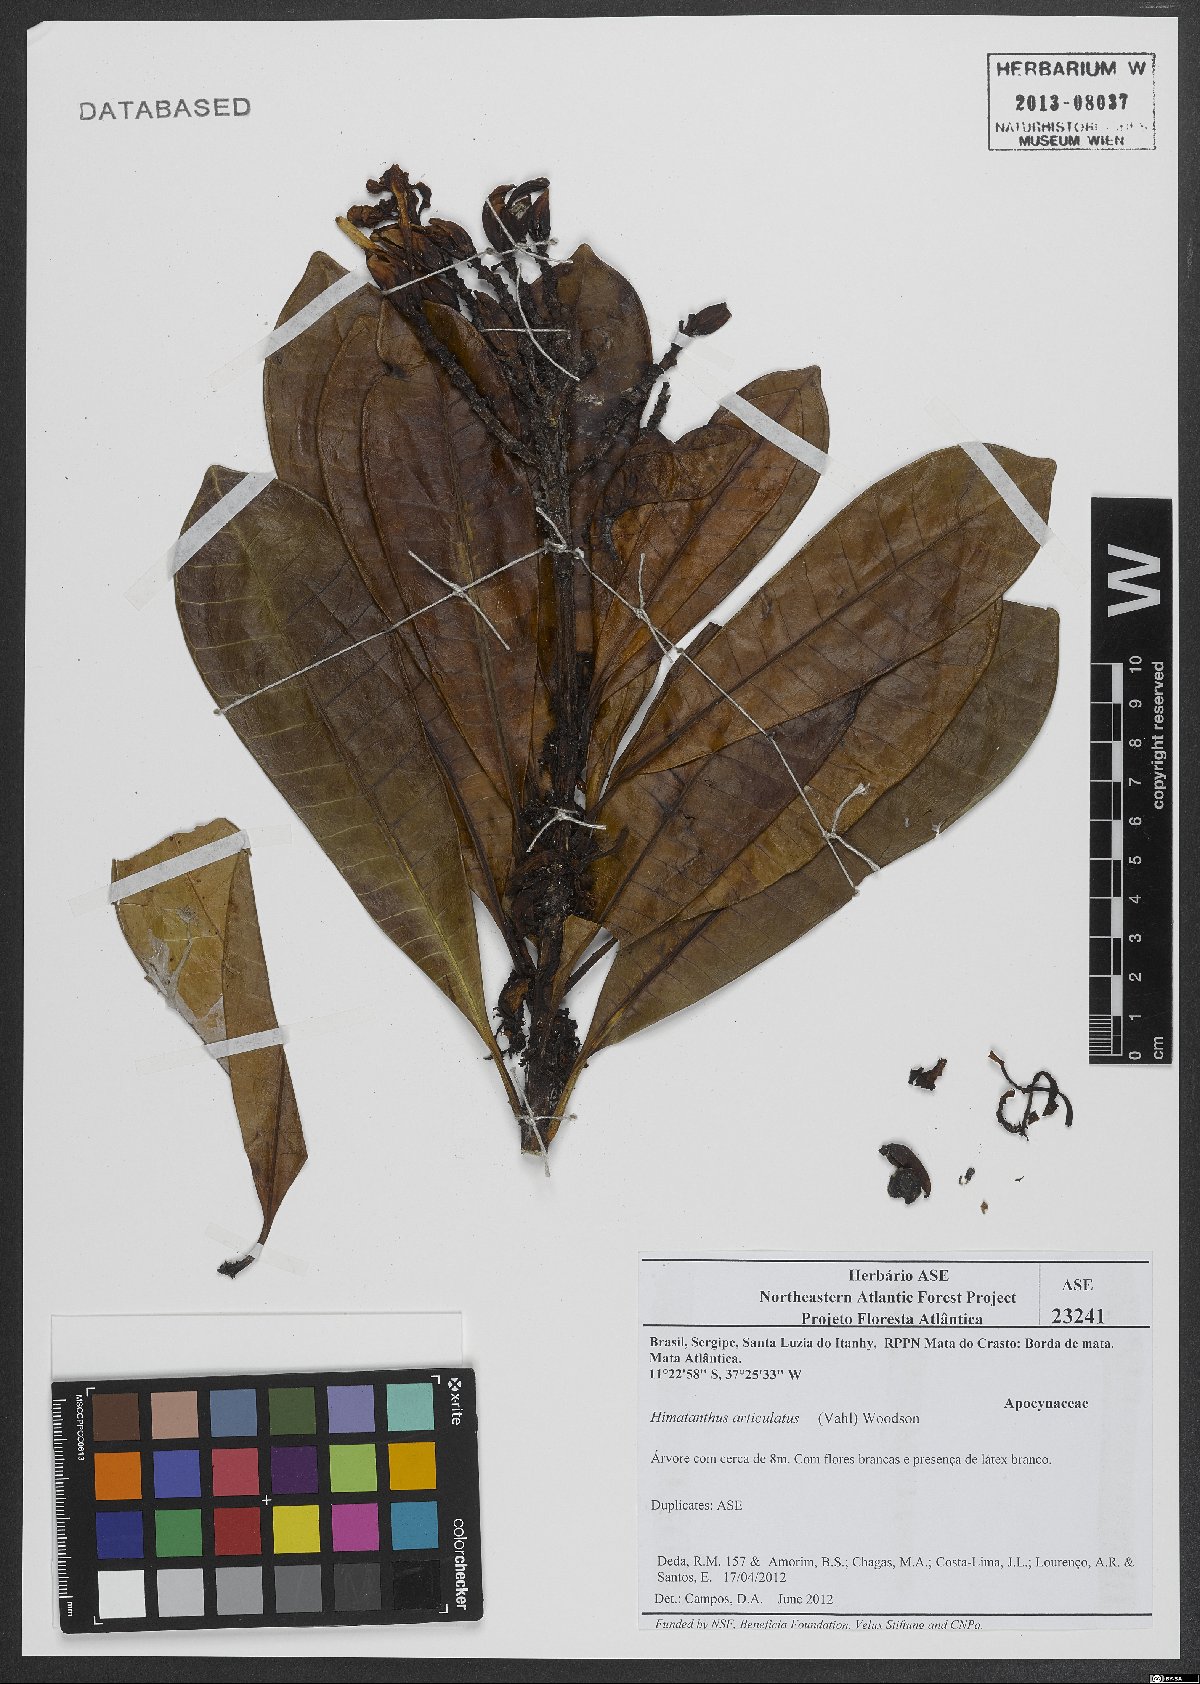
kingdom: Plantae
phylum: Tracheophyta
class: Magnoliopsida
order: Gentianales
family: Apocynaceae
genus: Himatanthus
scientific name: Himatanthus articulatus
